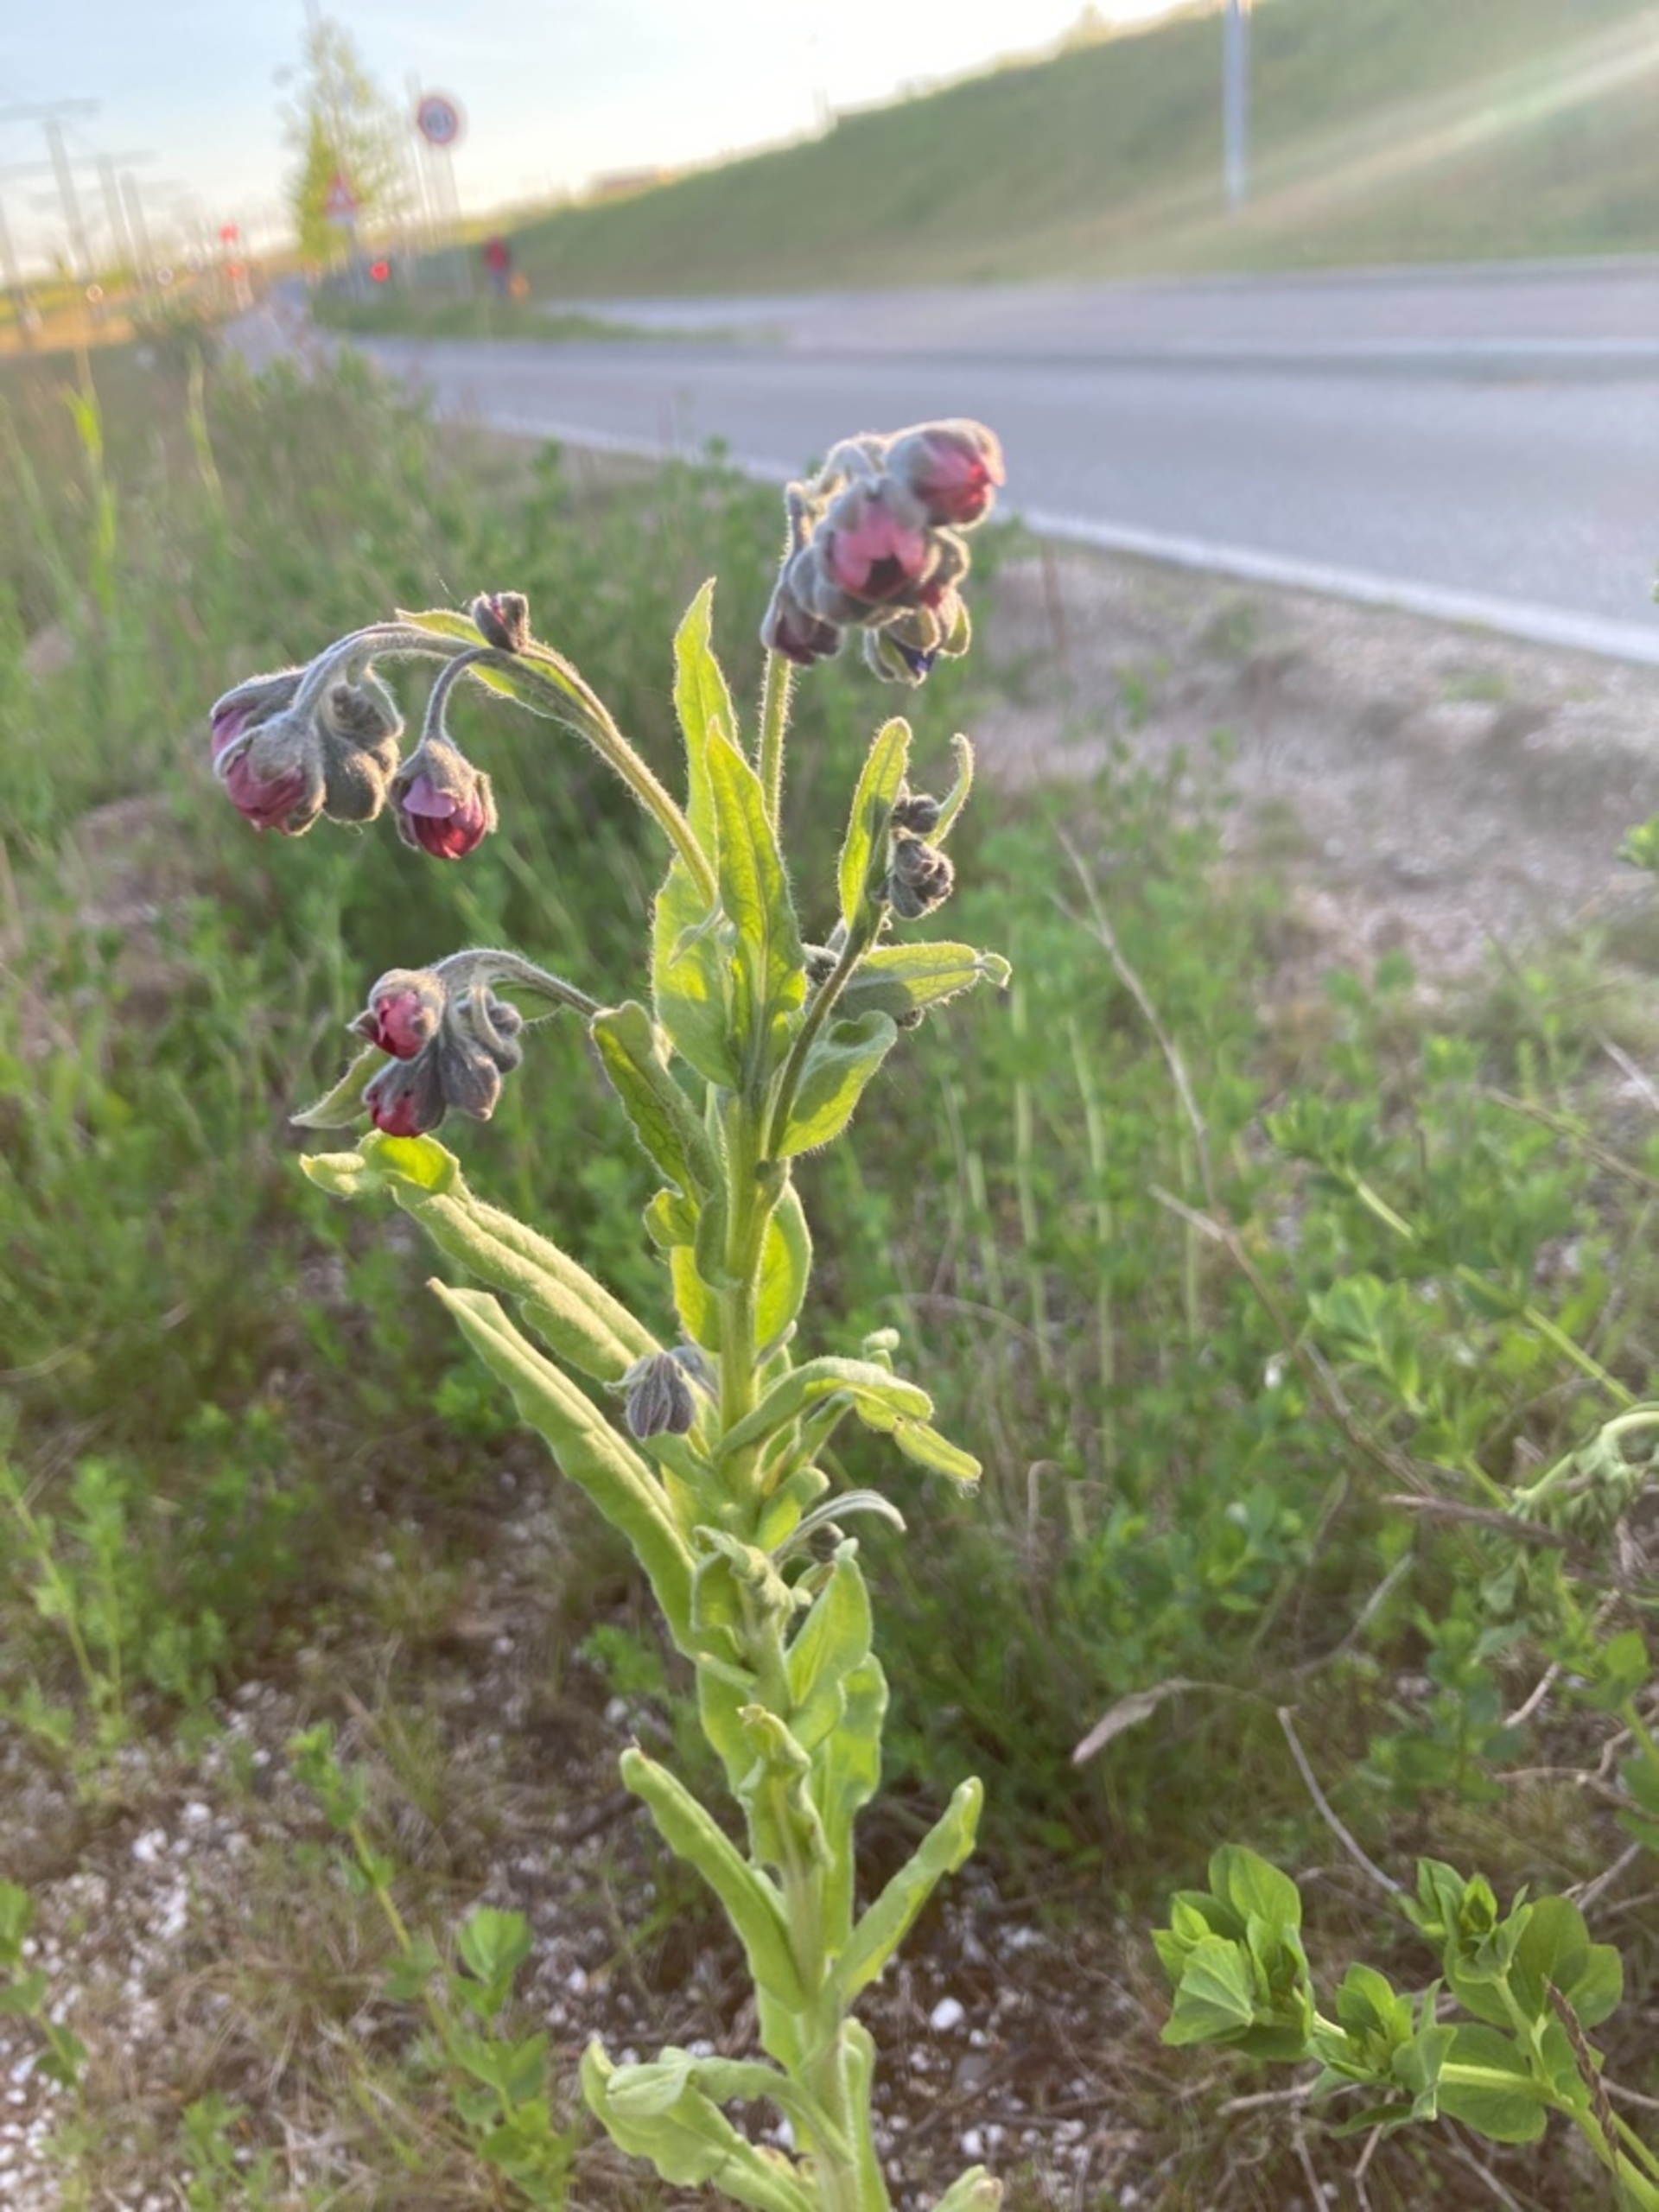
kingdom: Plantae
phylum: Tracheophyta
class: Magnoliopsida
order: Boraginales
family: Boraginaceae
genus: Cynoglossum
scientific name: Cynoglossum officinale
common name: Hundetunge
